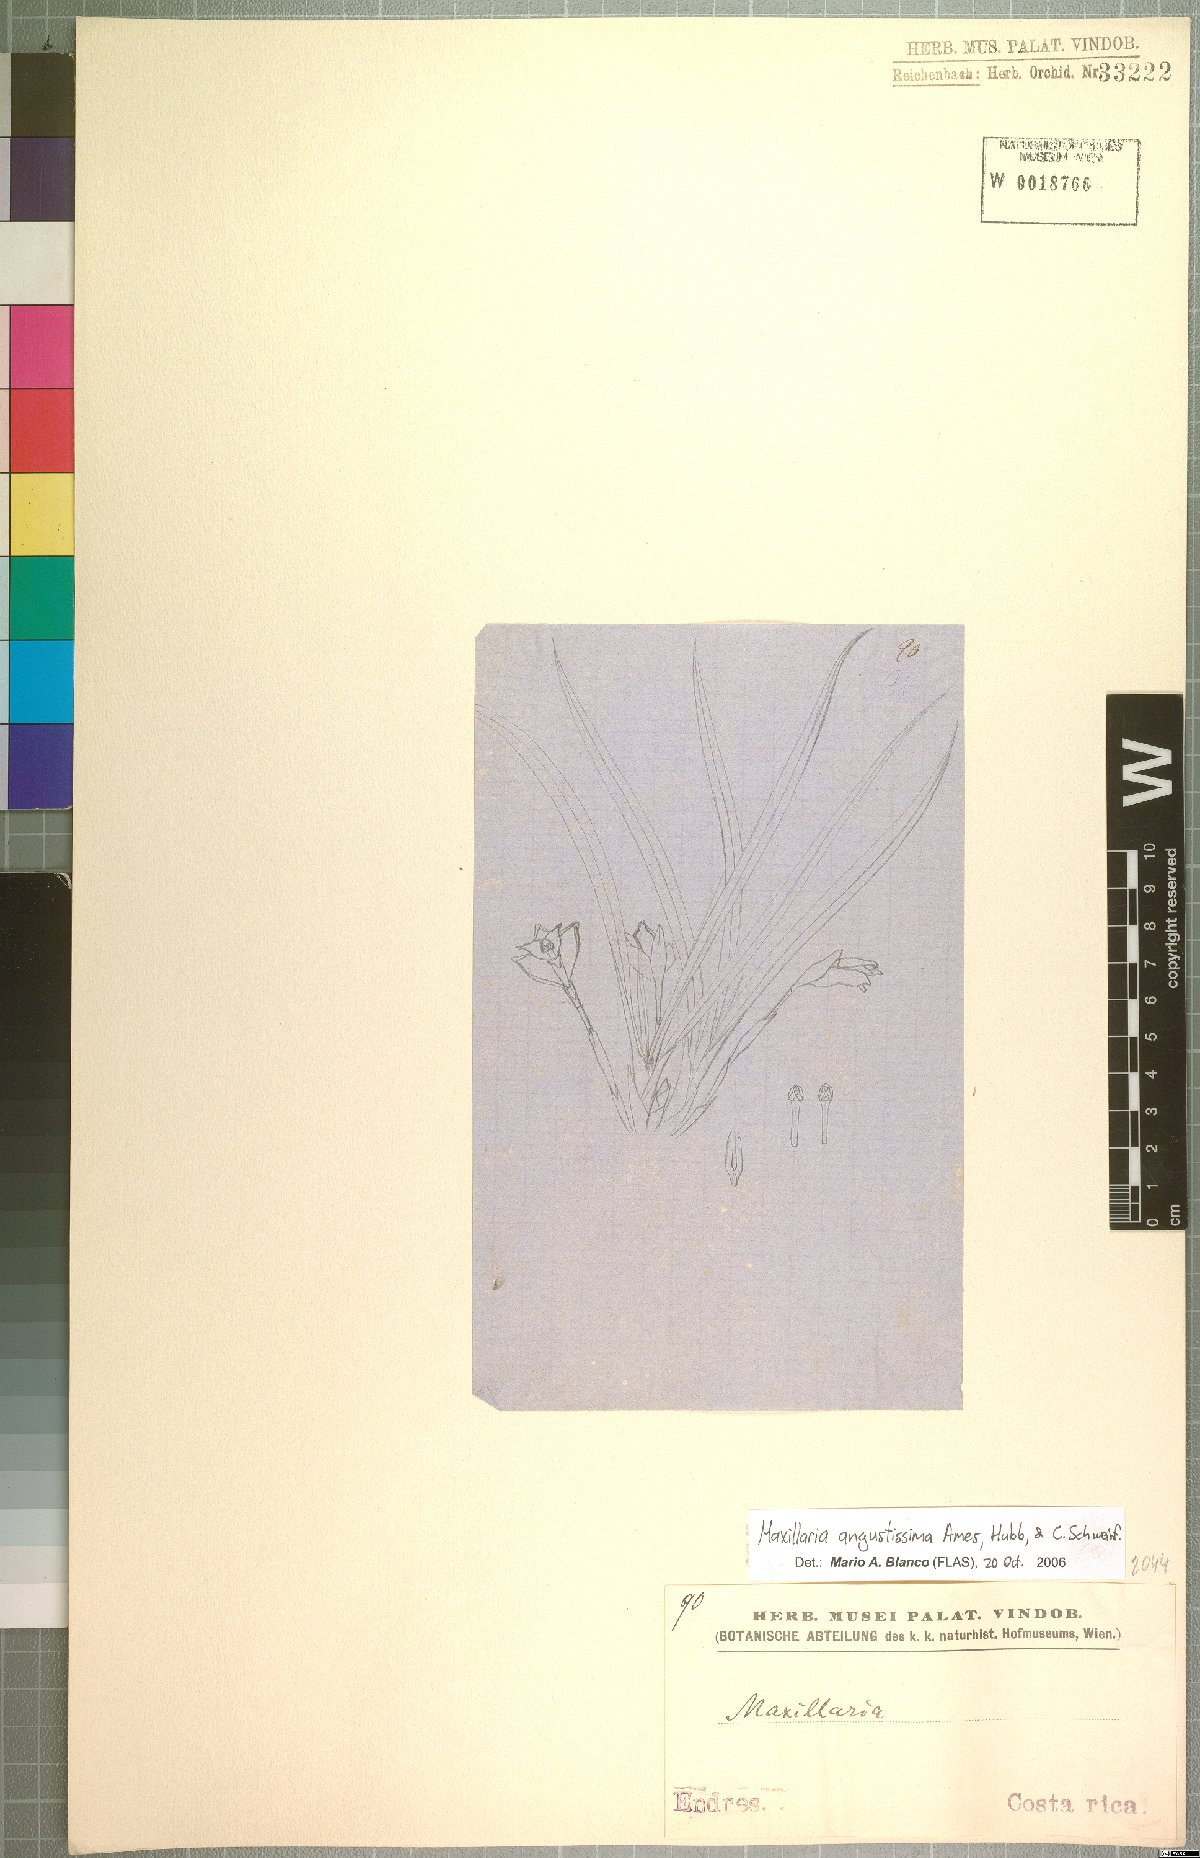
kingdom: Plantae
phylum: Tracheophyta
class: Liliopsida
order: Asparagales
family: Orchidaceae
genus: Maxillaria
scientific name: Maxillaria angustissima
